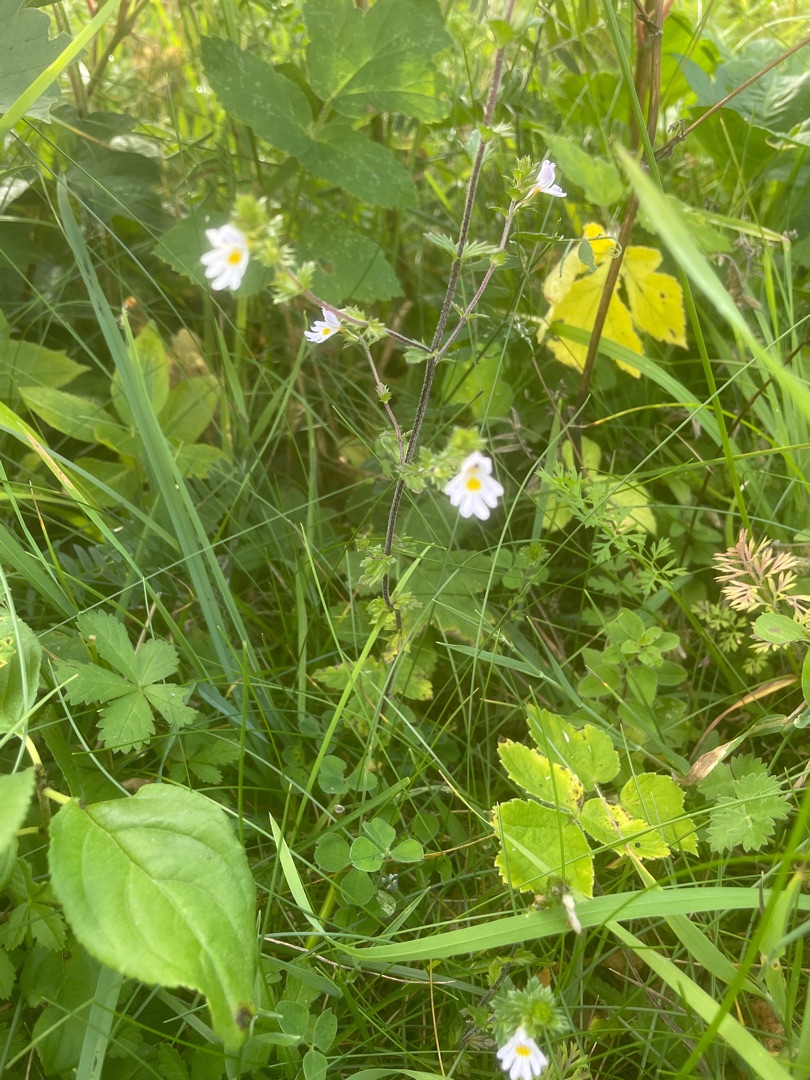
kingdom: Plantae
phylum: Tracheophyta
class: Magnoliopsida
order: Lamiales
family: Orobanchaceae
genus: Euphrasia
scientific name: Euphrasia
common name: Øjentrøstslægten
